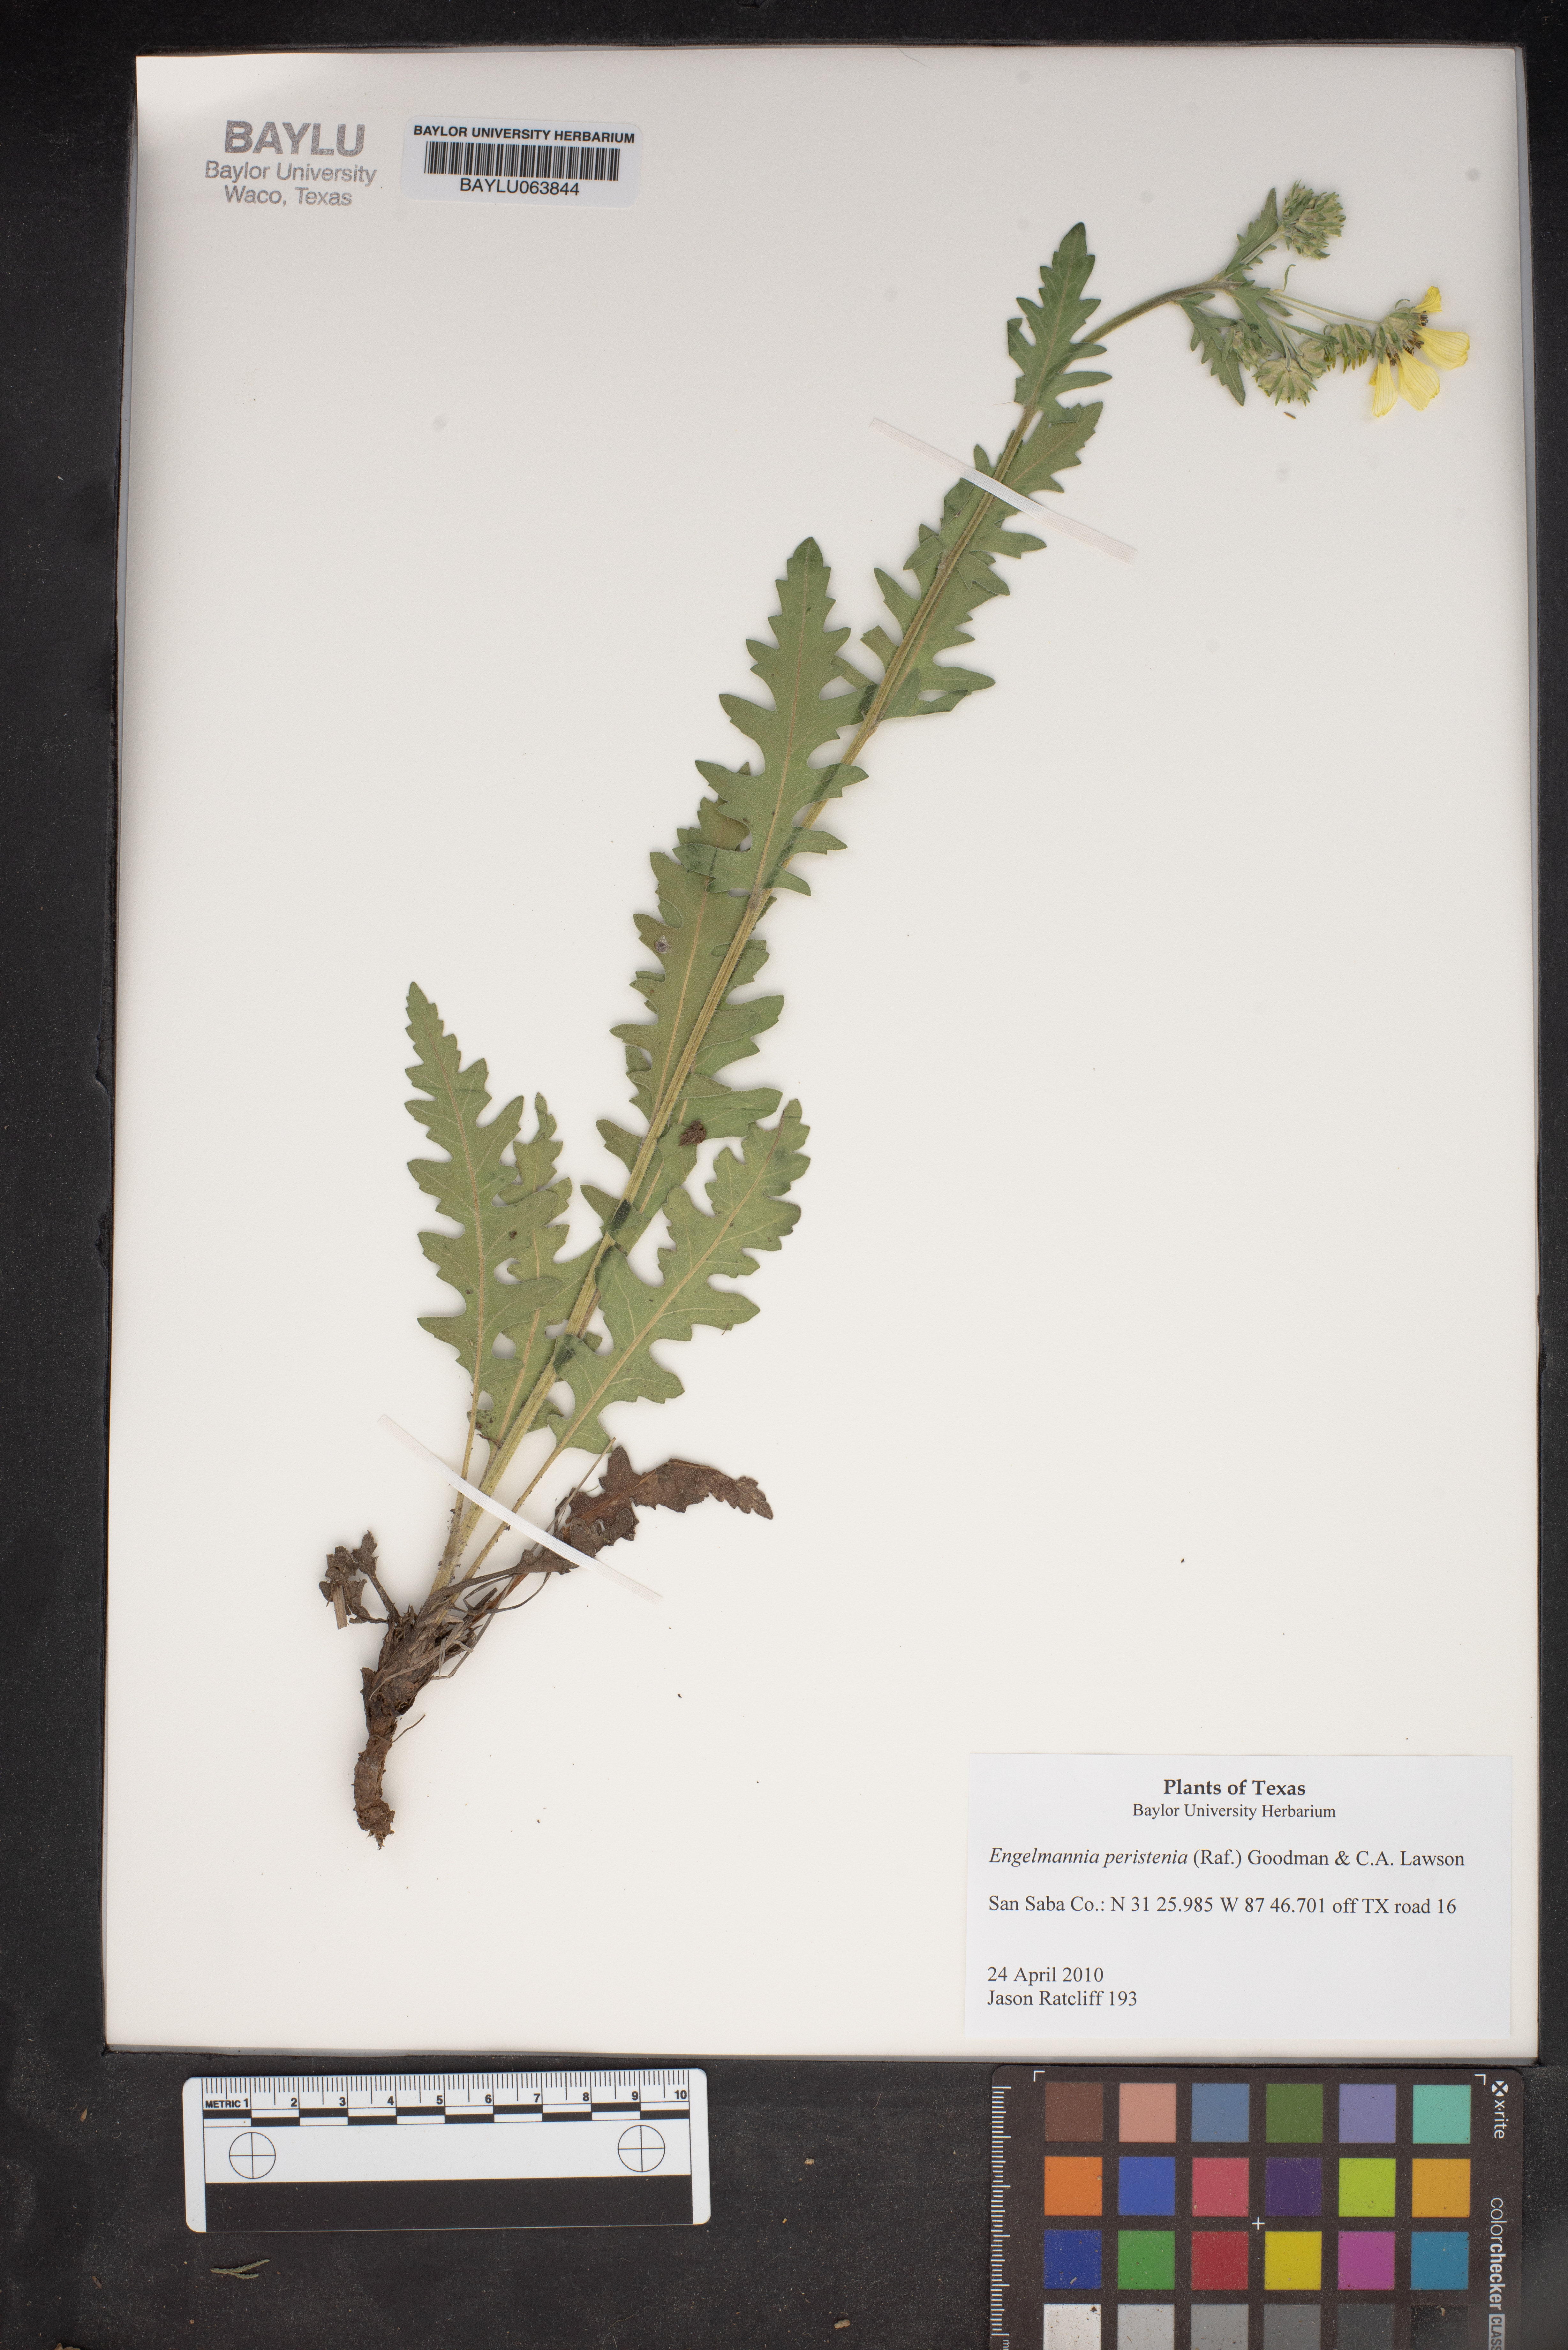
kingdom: Plantae
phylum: Tracheophyta
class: Magnoliopsida
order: Asterales
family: Asteraceae
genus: Engelmannia
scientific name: Engelmannia peristenia
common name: Engelmann's daisy
